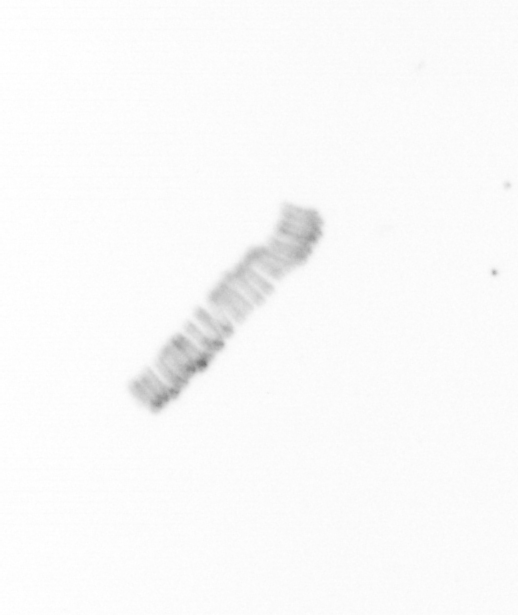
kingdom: Chromista
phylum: Ochrophyta
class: Bacillariophyceae
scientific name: Bacillariophyceae
